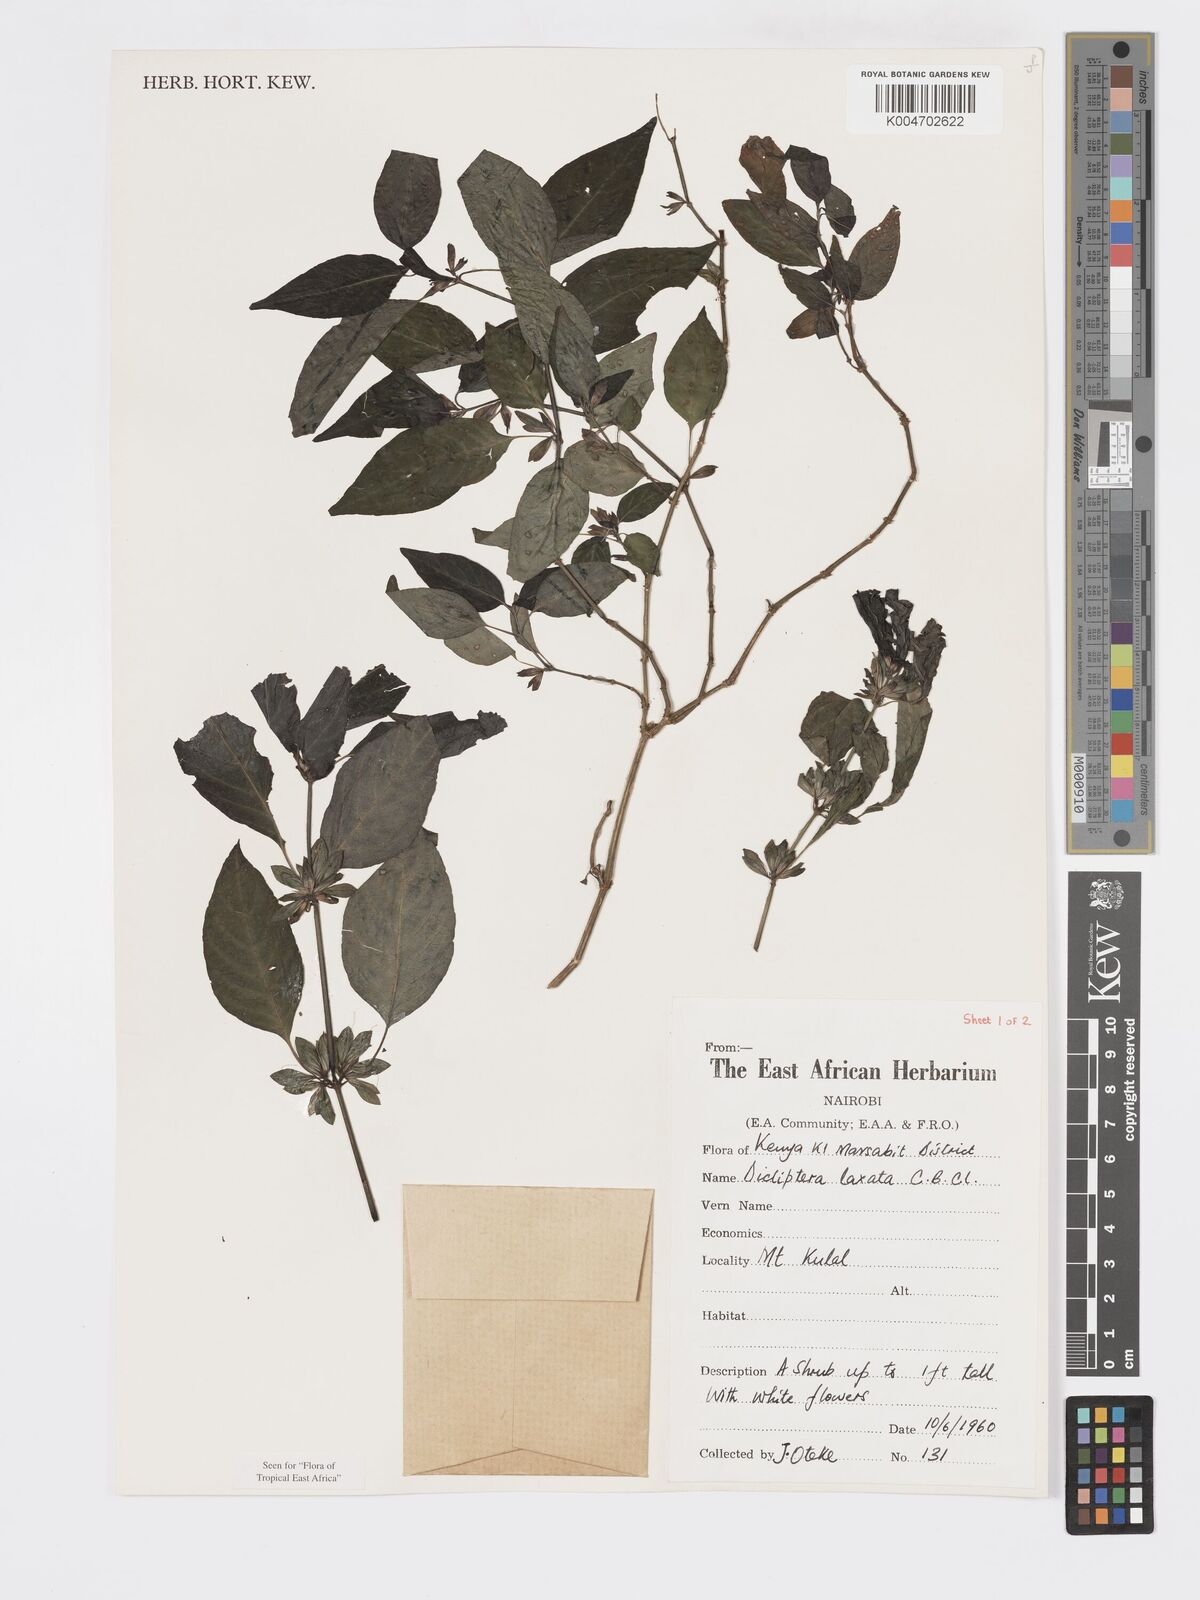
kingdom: Plantae
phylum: Tracheophyta
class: Magnoliopsida
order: Lamiales
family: Acanthaceae
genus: Dicliptera
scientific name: Dicliptera laxata
